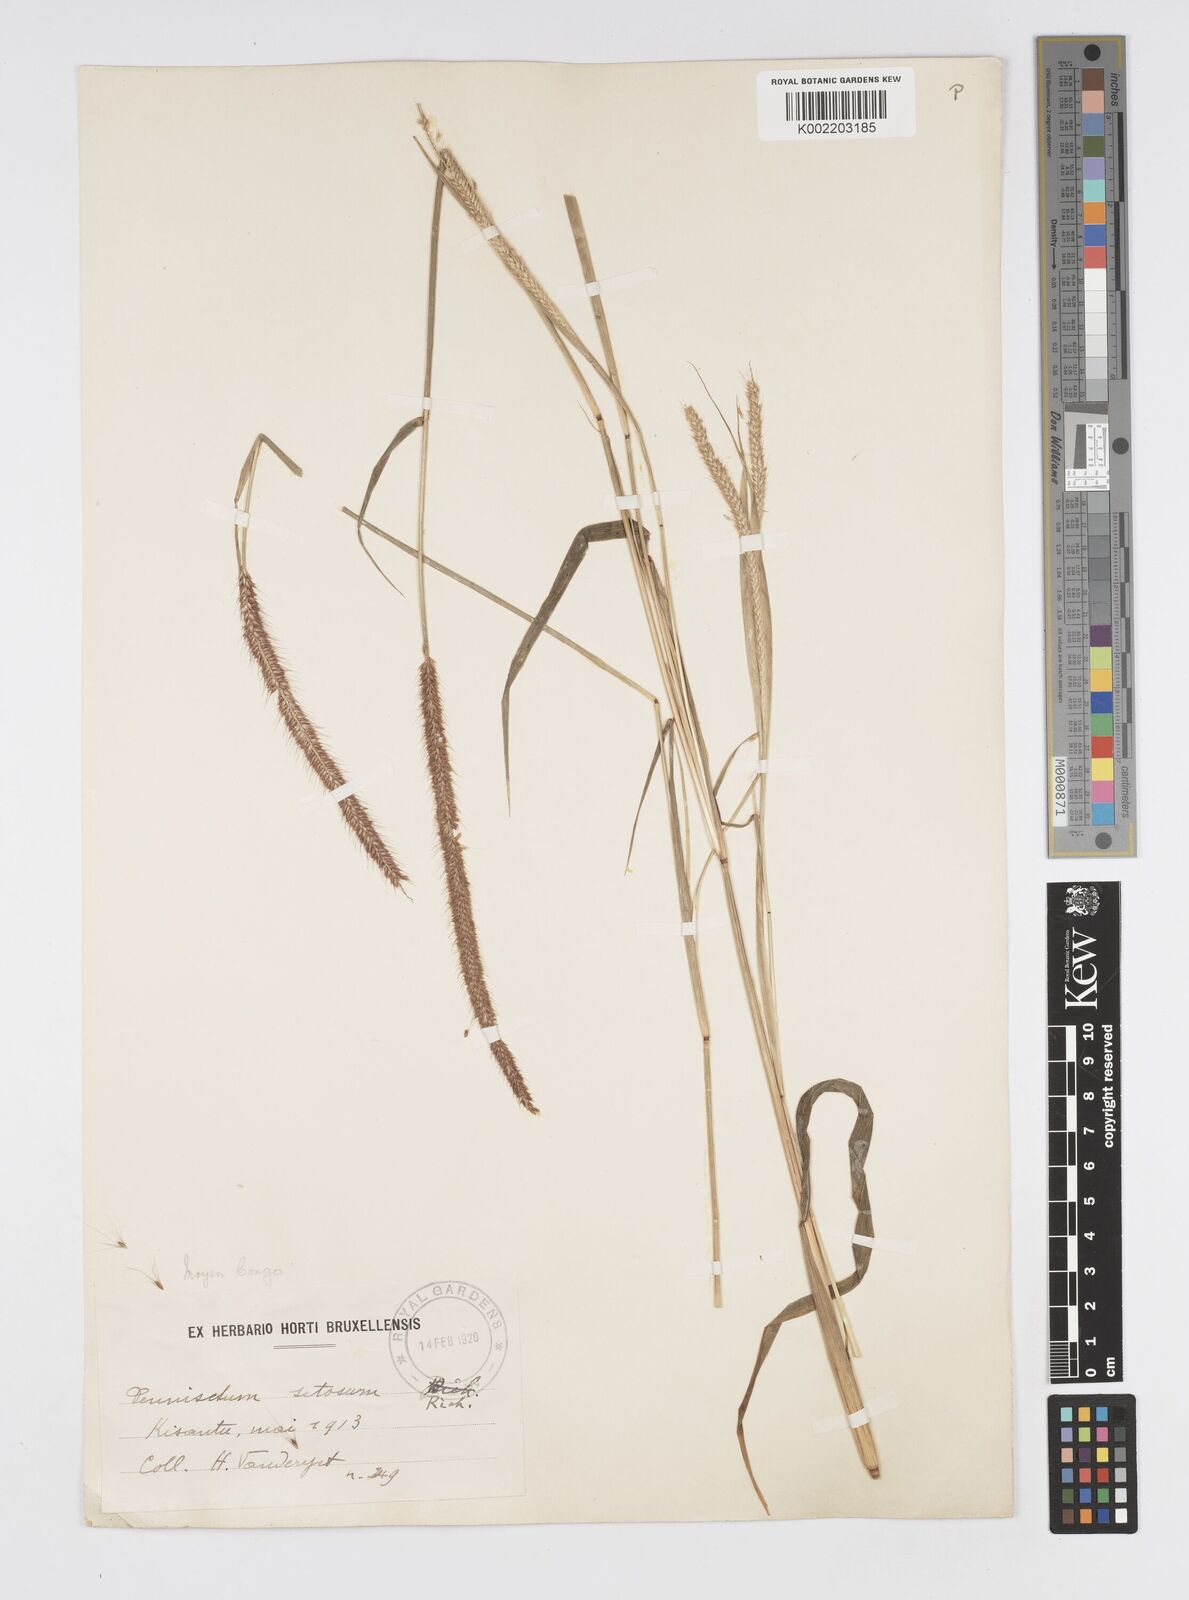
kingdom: Plantae
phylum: Tracheophyta
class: Liliopsida
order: Poales
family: Poaceae
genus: Cenchrus
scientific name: Cenchrus hordeoides
